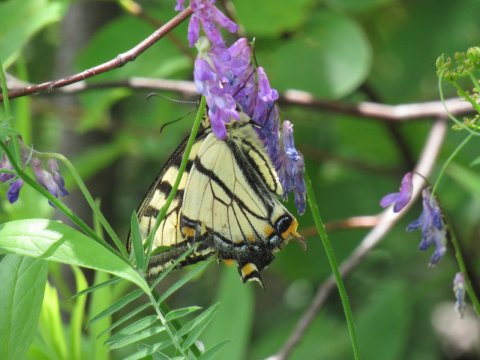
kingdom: Animalia
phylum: Arthropoda
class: Insecta
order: Lepidoptera
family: Papilionidae
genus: Pterourus
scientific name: Pterourus canadensis
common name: Canadian Tiger Swallowtail
